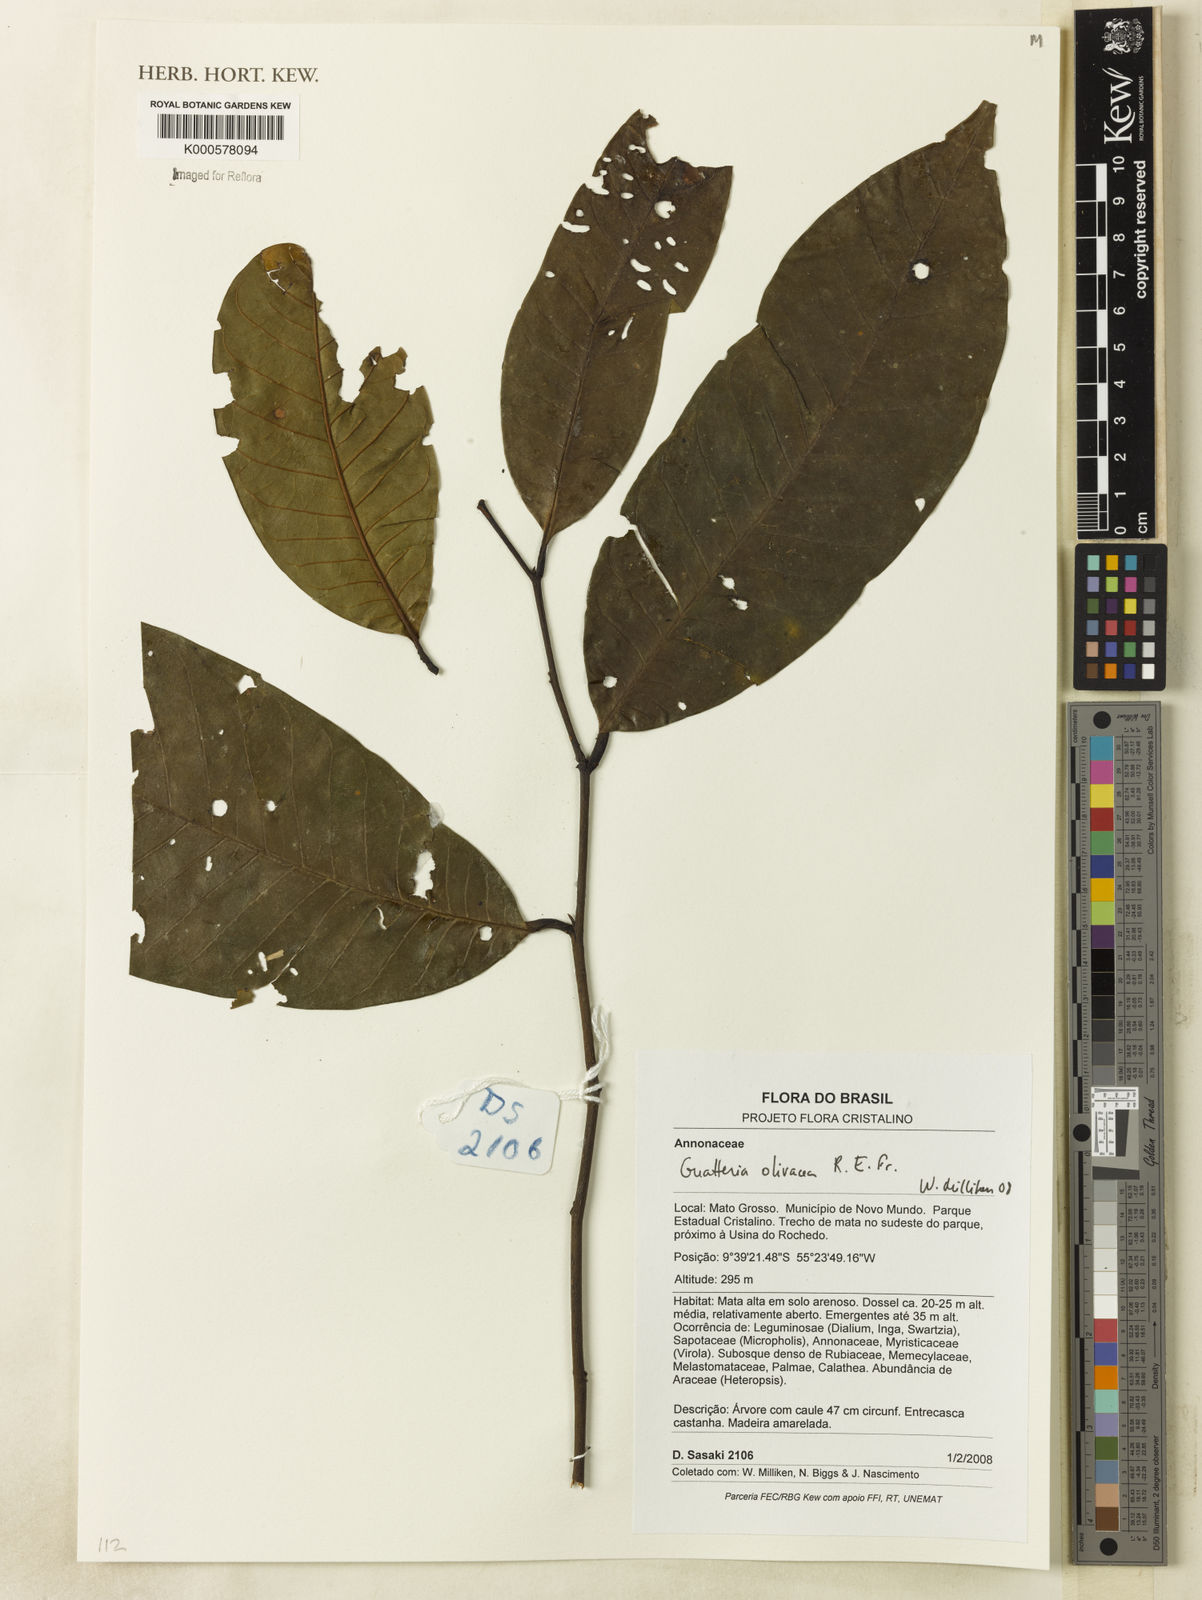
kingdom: Plantae
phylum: Tracheophyta
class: Magnoliopsida
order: Magnoliales
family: Annonaceae
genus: Guatteria
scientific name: Guatteria punctata
